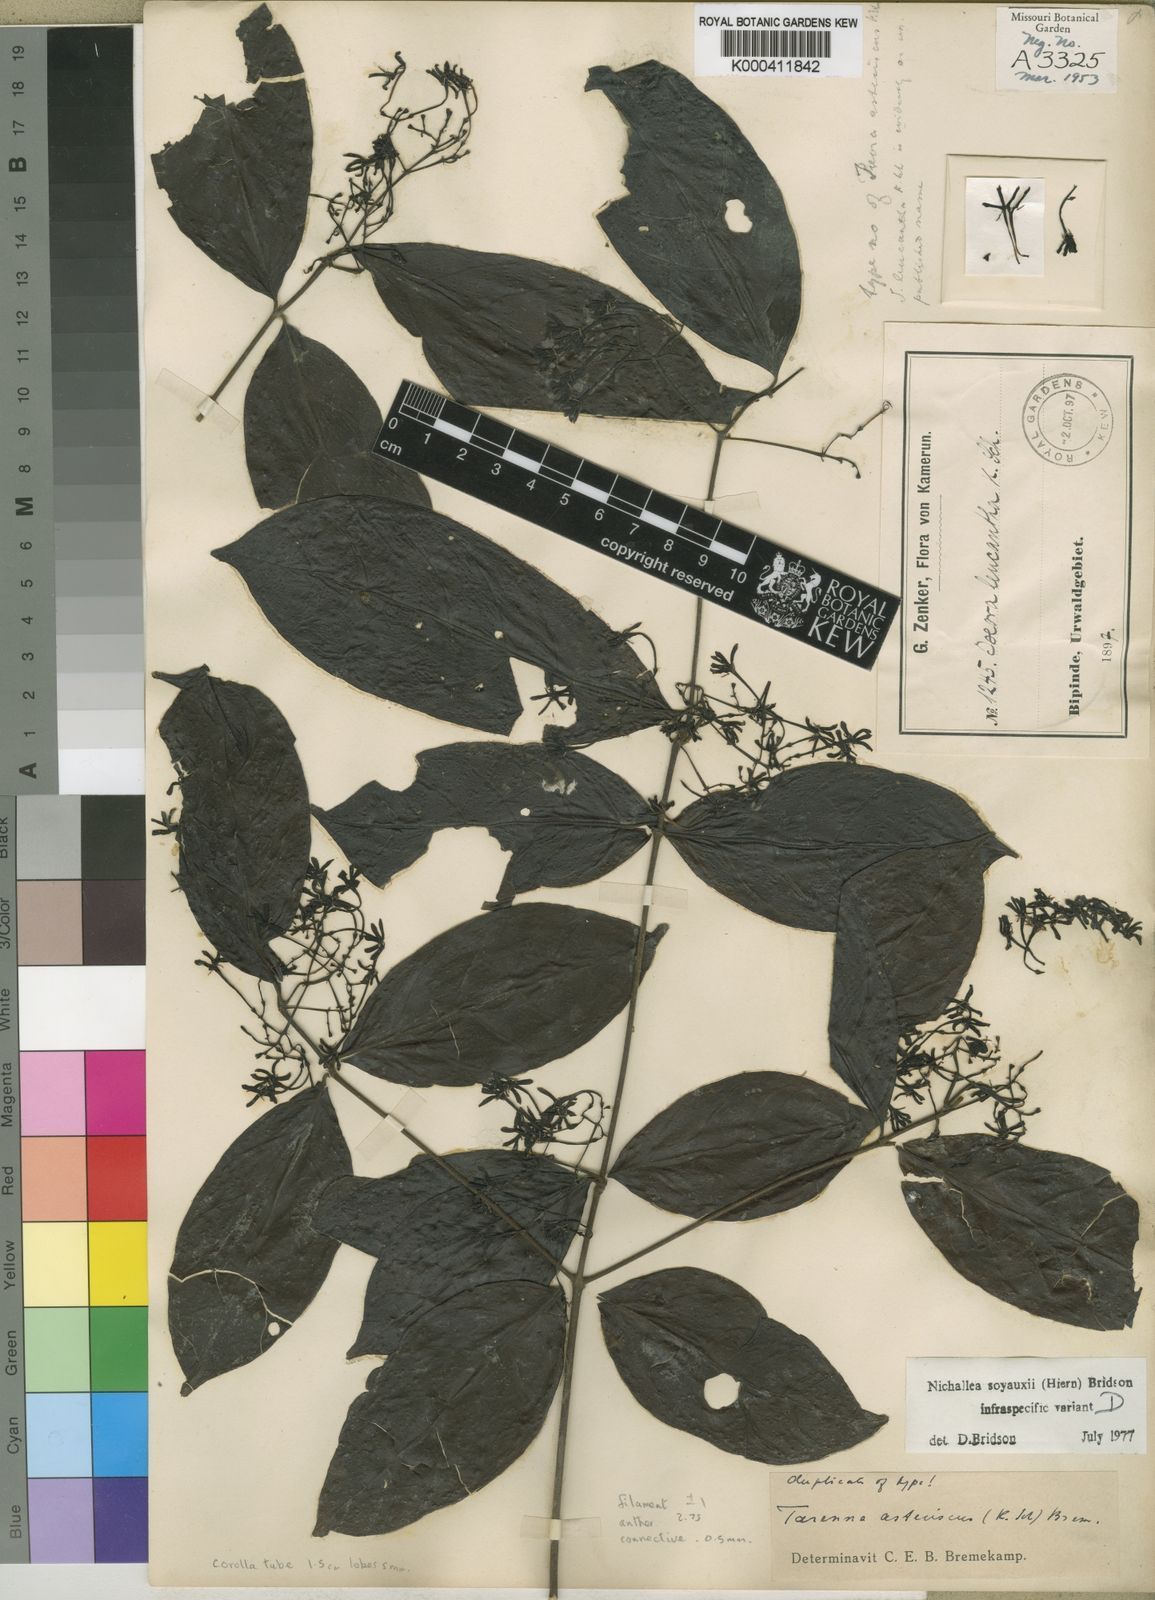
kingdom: Plantae
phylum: Tracheophyta
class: Magnoliopsida
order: Gentianales
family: Rubiaceae
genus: Nichallea
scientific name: Nichallea soyauxii
